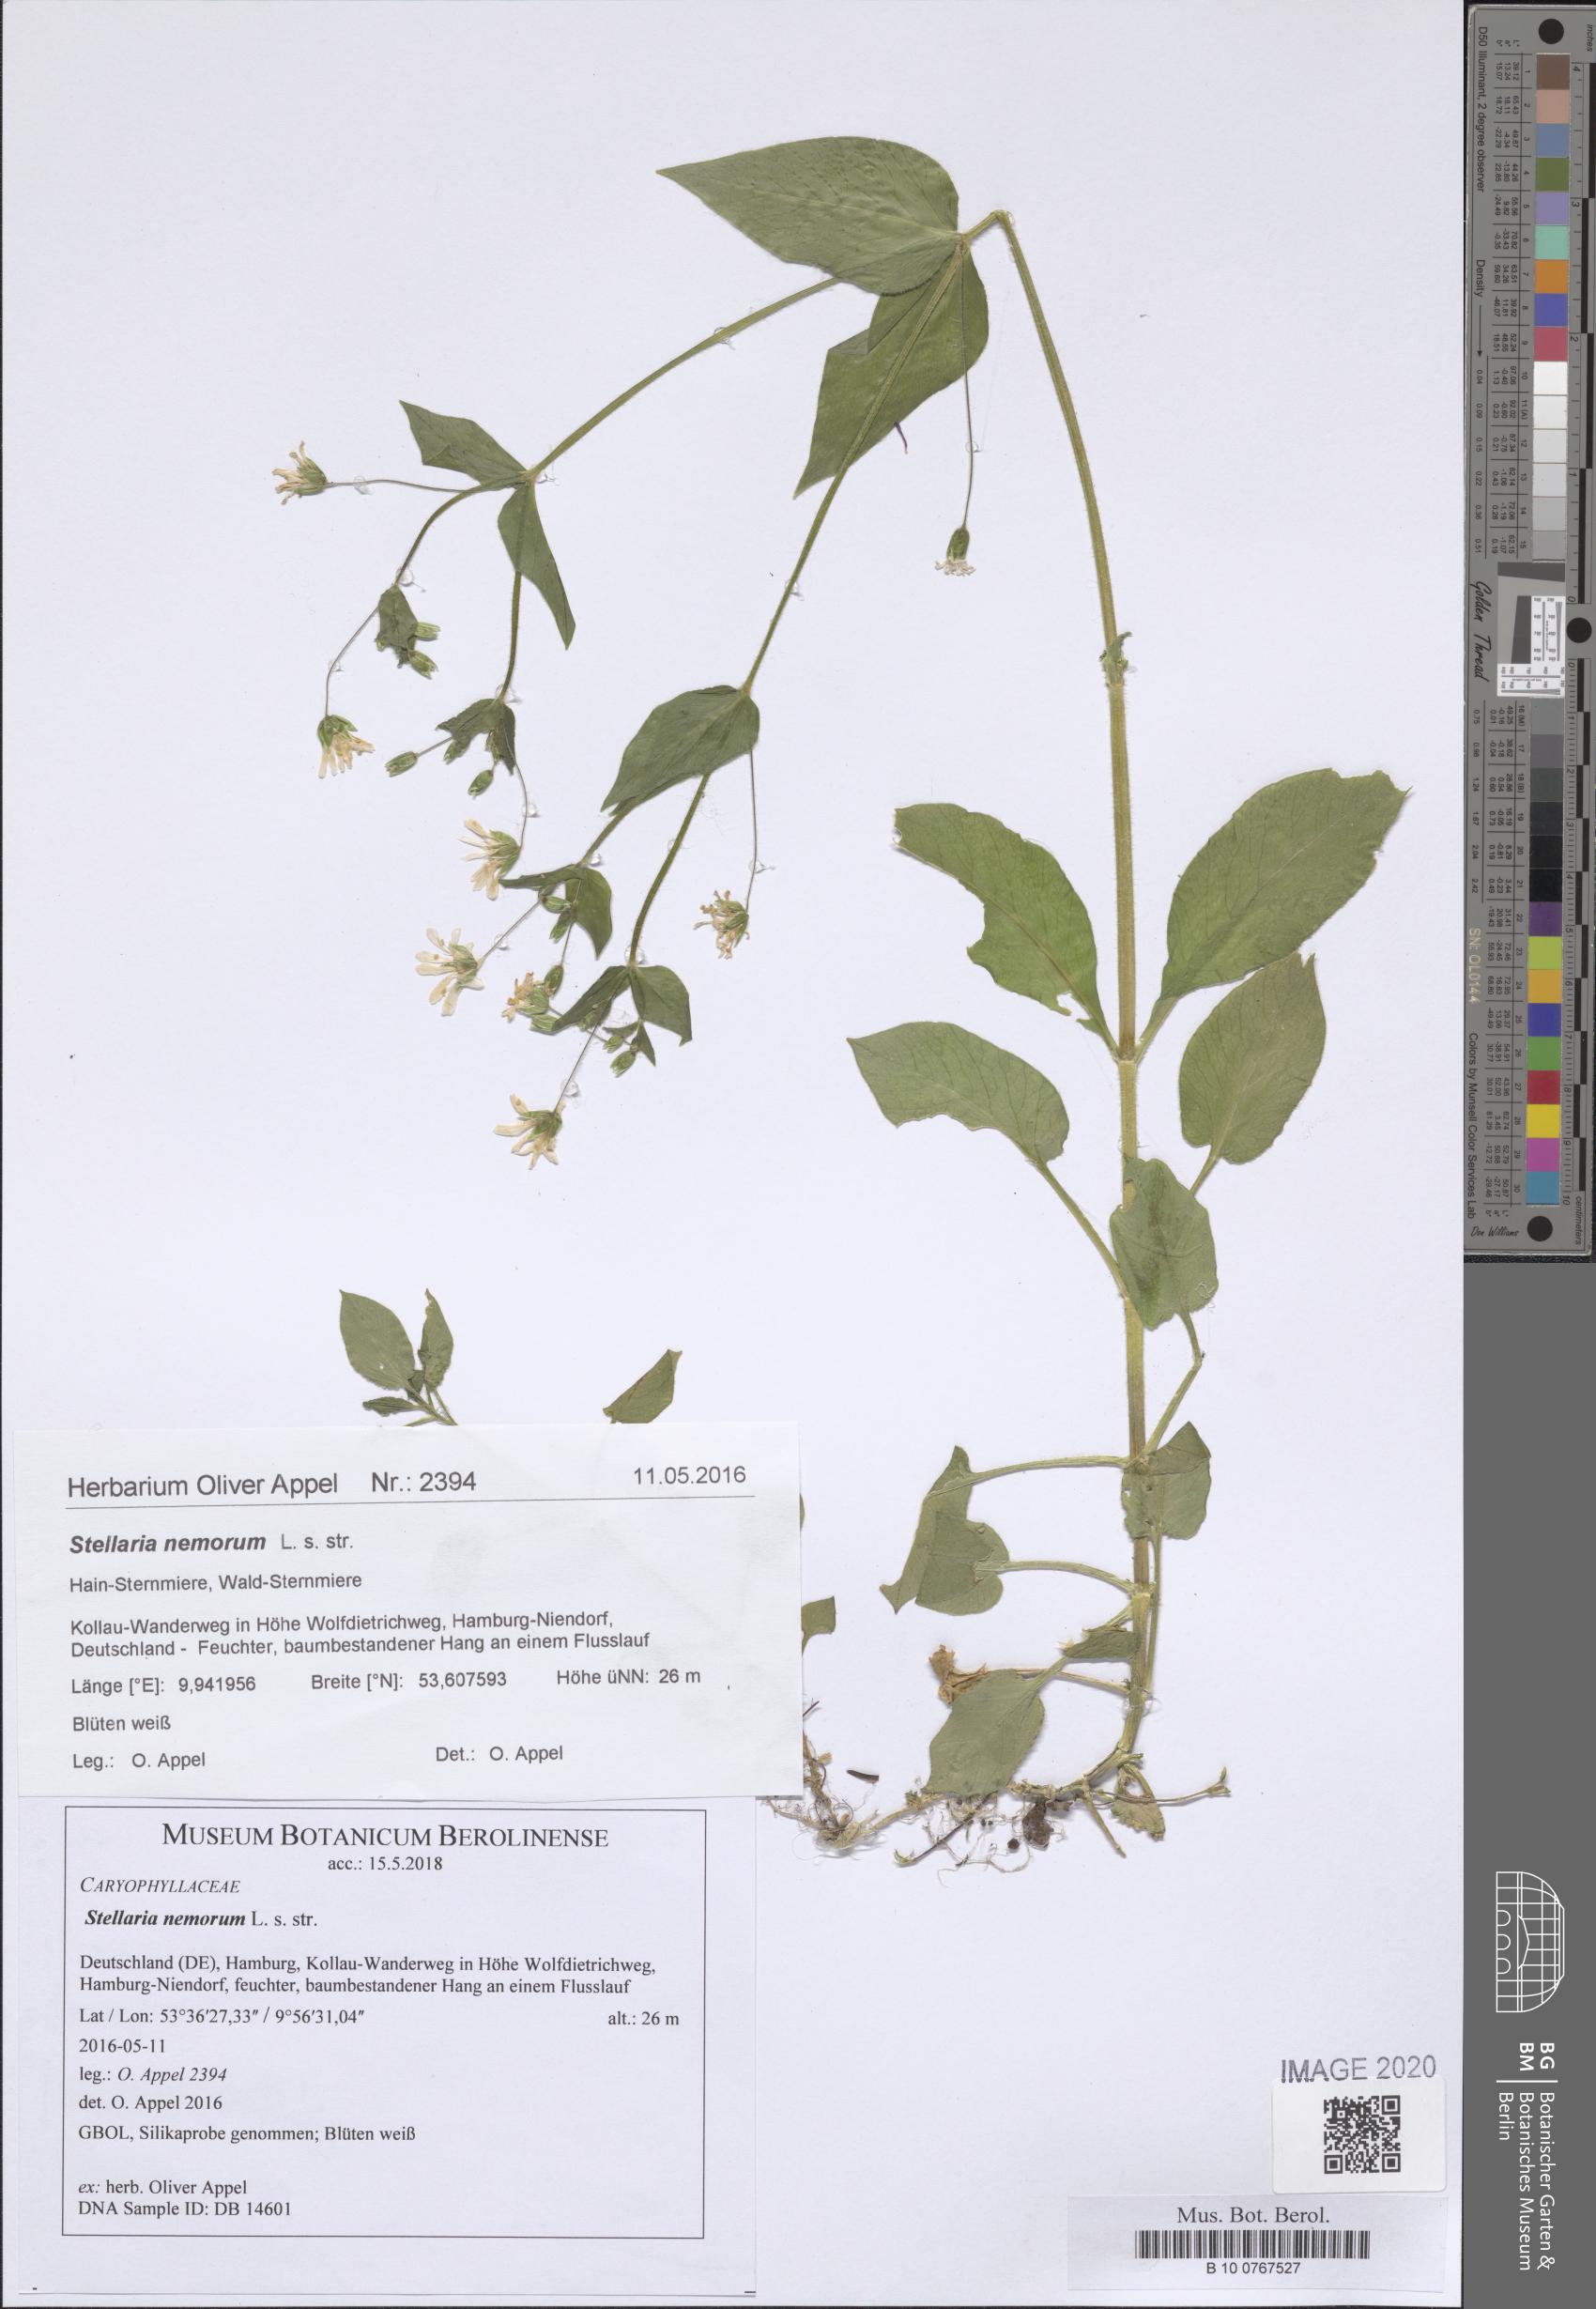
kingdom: Plantae
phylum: Tracheophyta
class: Magnoliopsida
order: Caryophyllales
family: Caryophyllaceae
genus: Stellaria
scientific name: Stellaria nemorum
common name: Wood stitchwort
